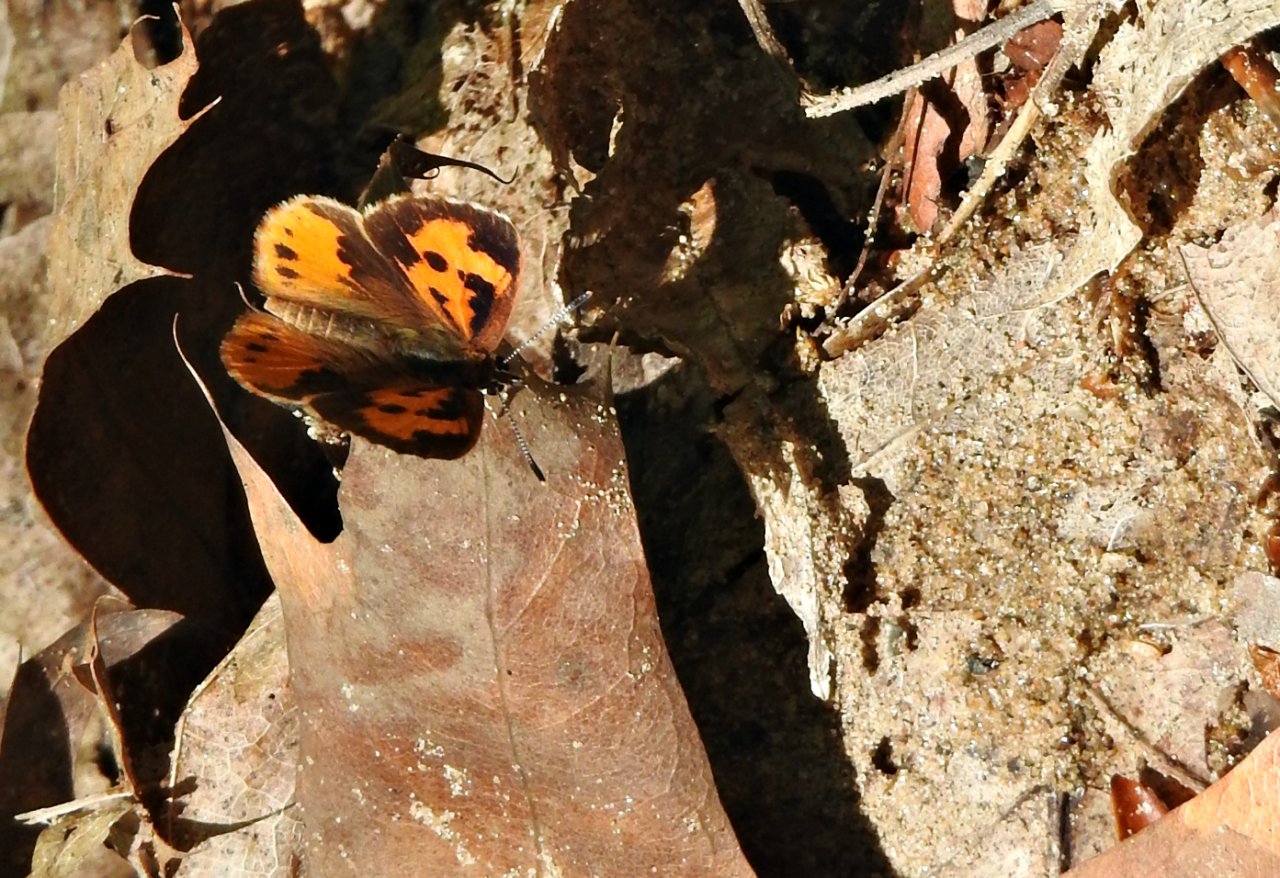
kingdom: Animalia
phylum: Arthropoda
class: Insecta
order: Lepidoptera
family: Lycaenidae
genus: Feniseca
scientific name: Feniseca tarquinius
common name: Harvester
